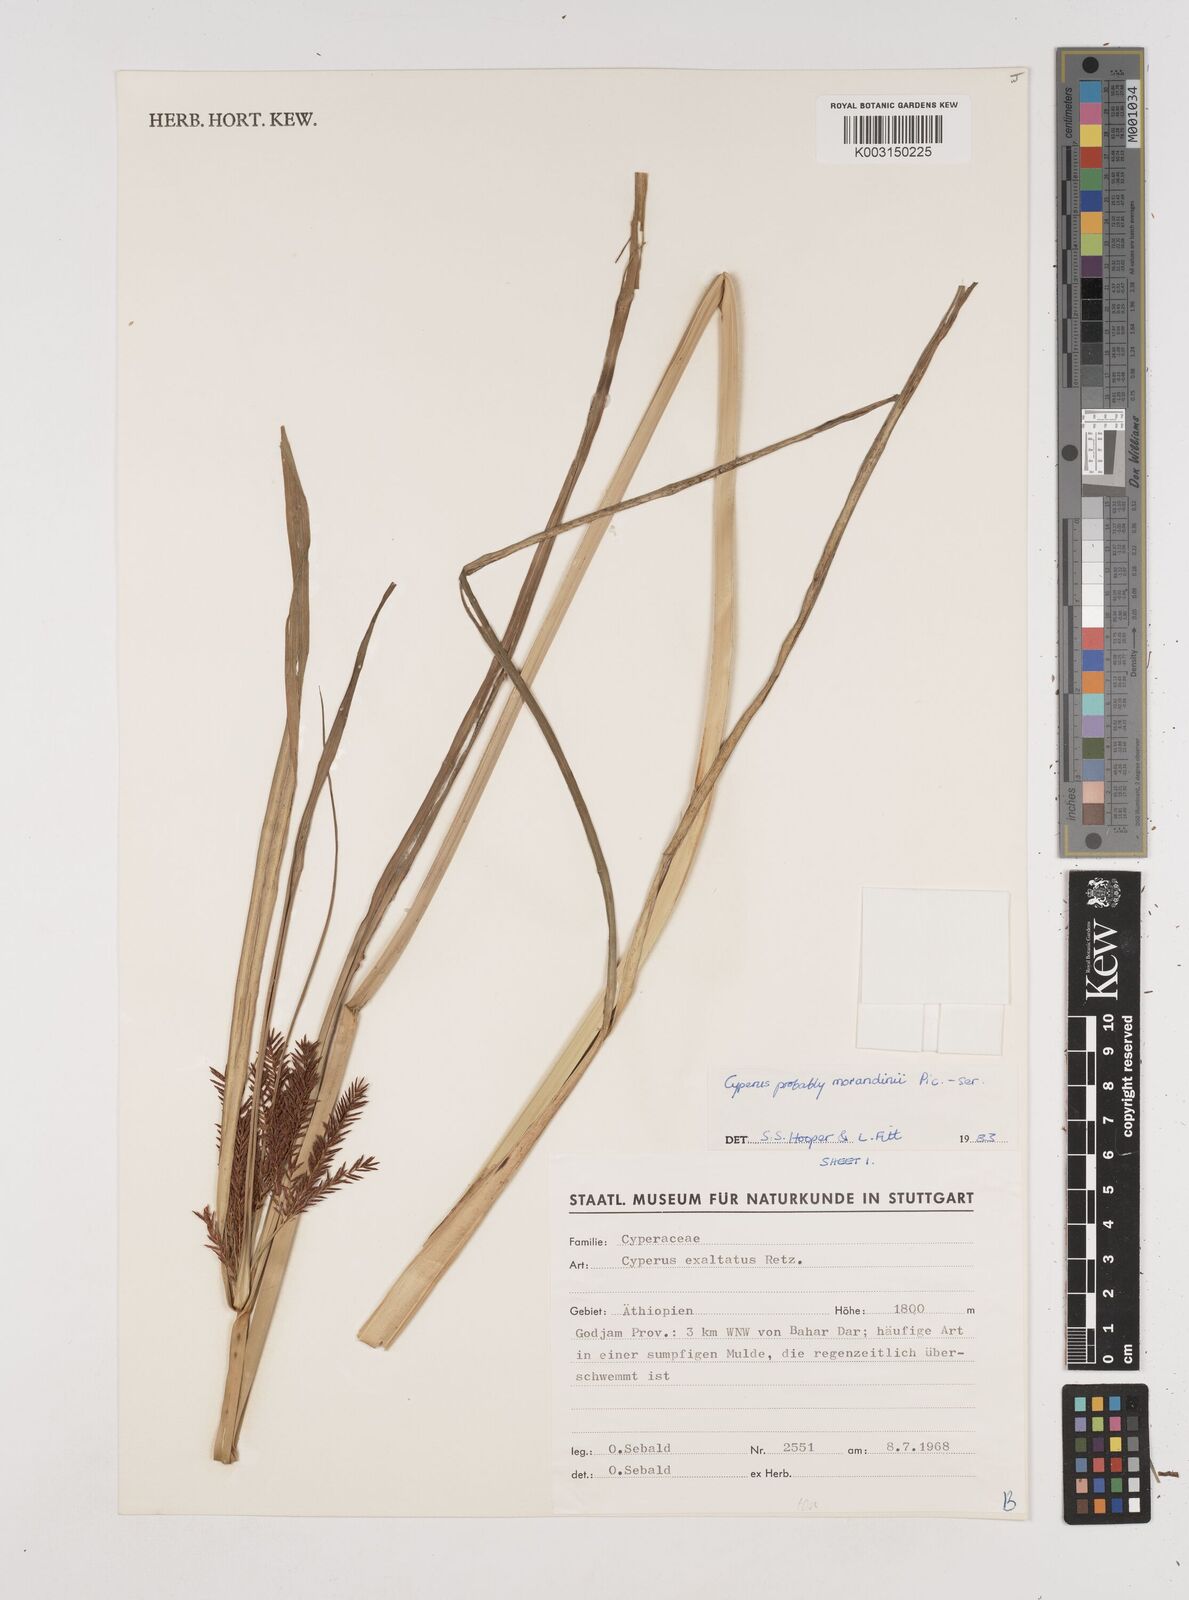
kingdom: Plantae
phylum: Tracheophyta
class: Liliopsida
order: Poales
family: Cyperaceae
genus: Cyperus
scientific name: Cyperus penzoanus
